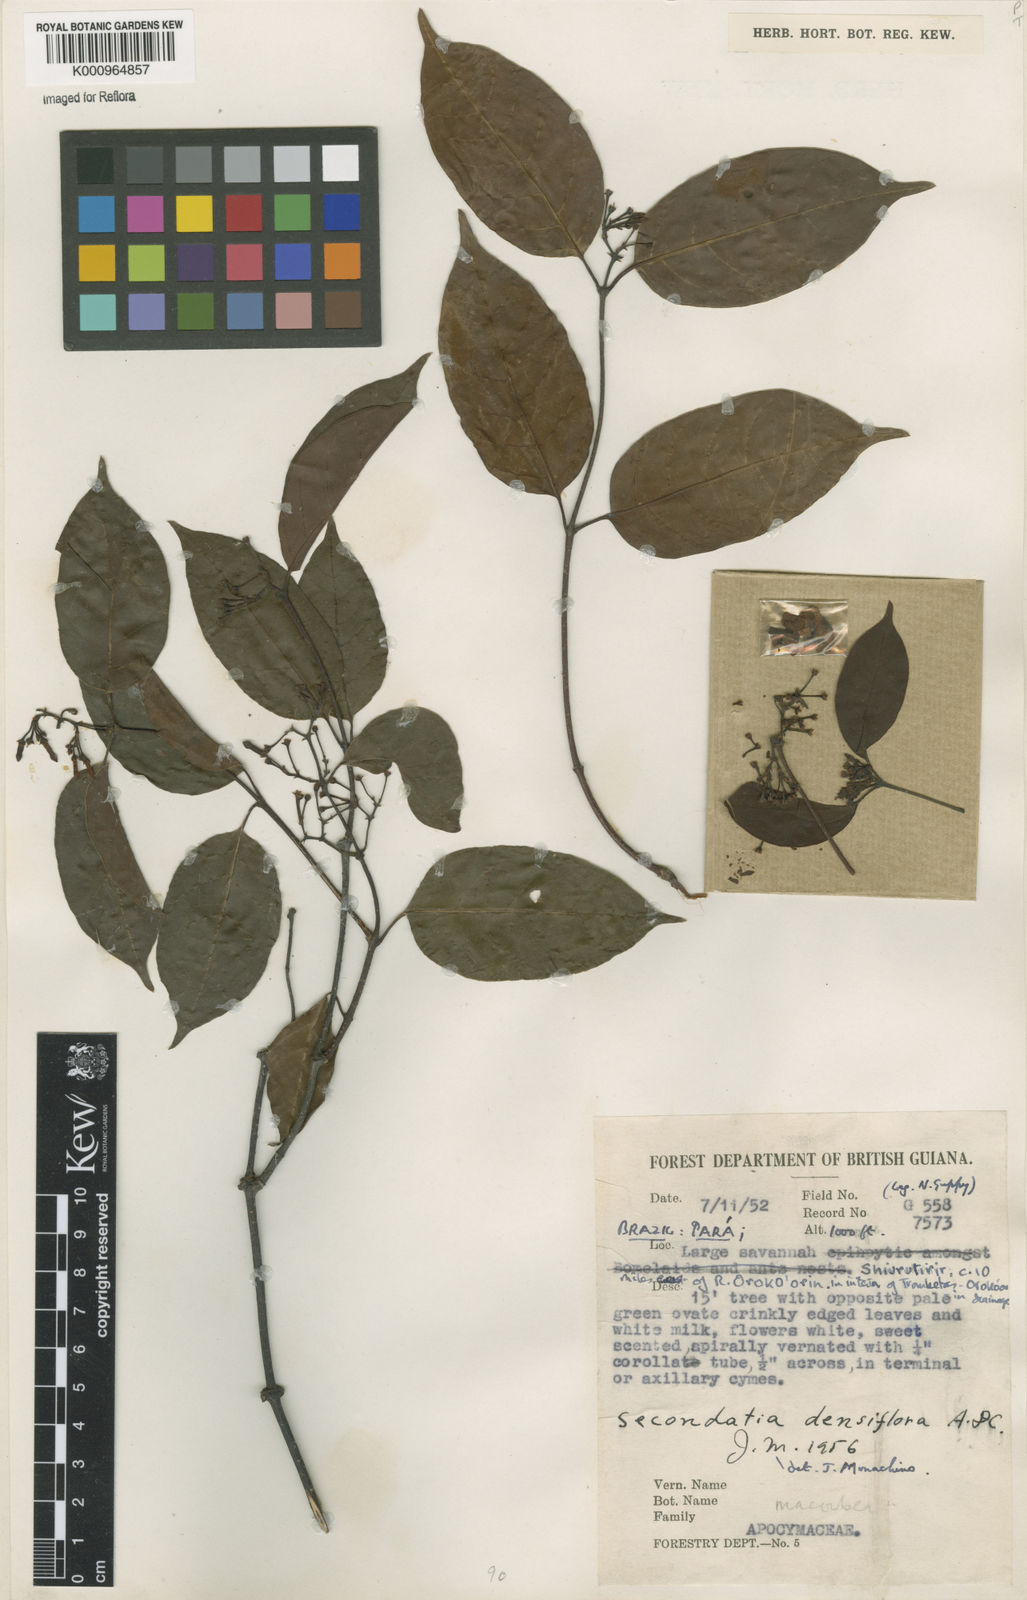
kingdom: Plantae
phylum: Tracheophyta
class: Magnoliopsida
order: Gentianales
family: Apocynaceae
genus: Secondatia
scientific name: Secondatia densiflora
